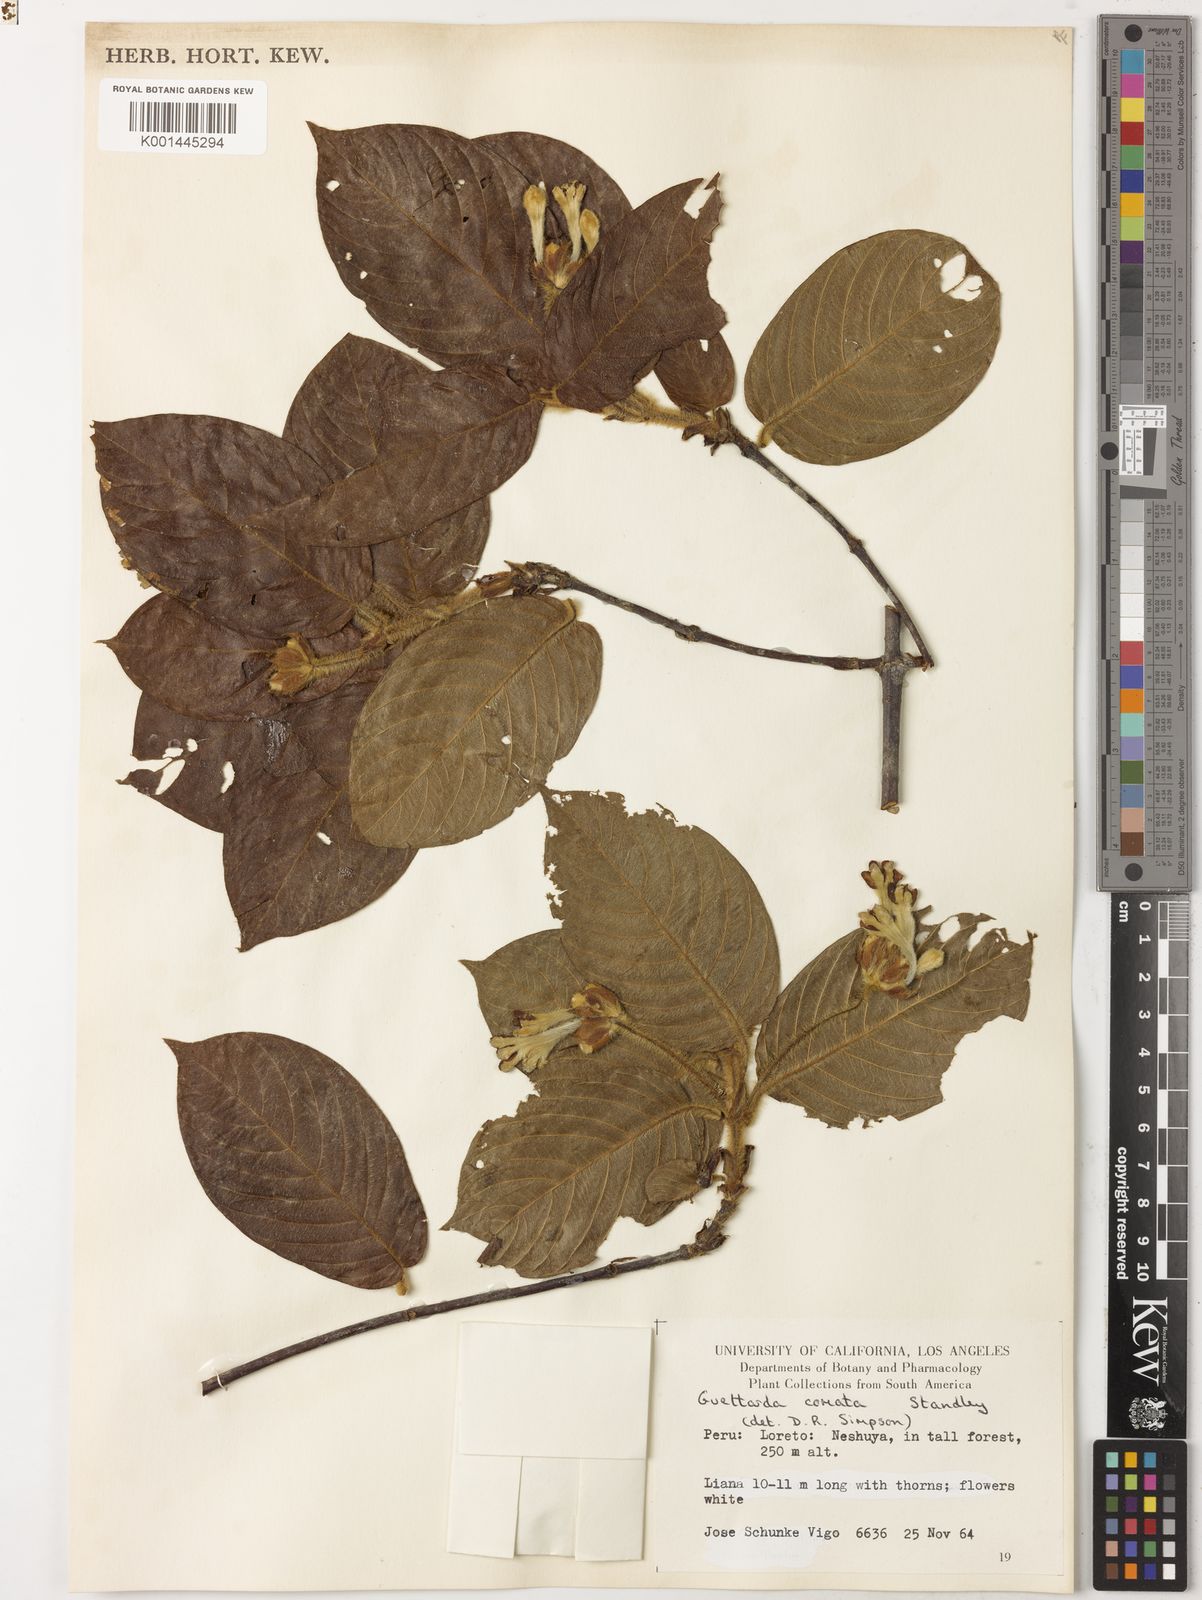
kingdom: Plantae
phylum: Tracheophyta
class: Magnoliopsida
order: Gentianales
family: Rubiaceae
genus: Guettarda
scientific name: Guettarda comata
